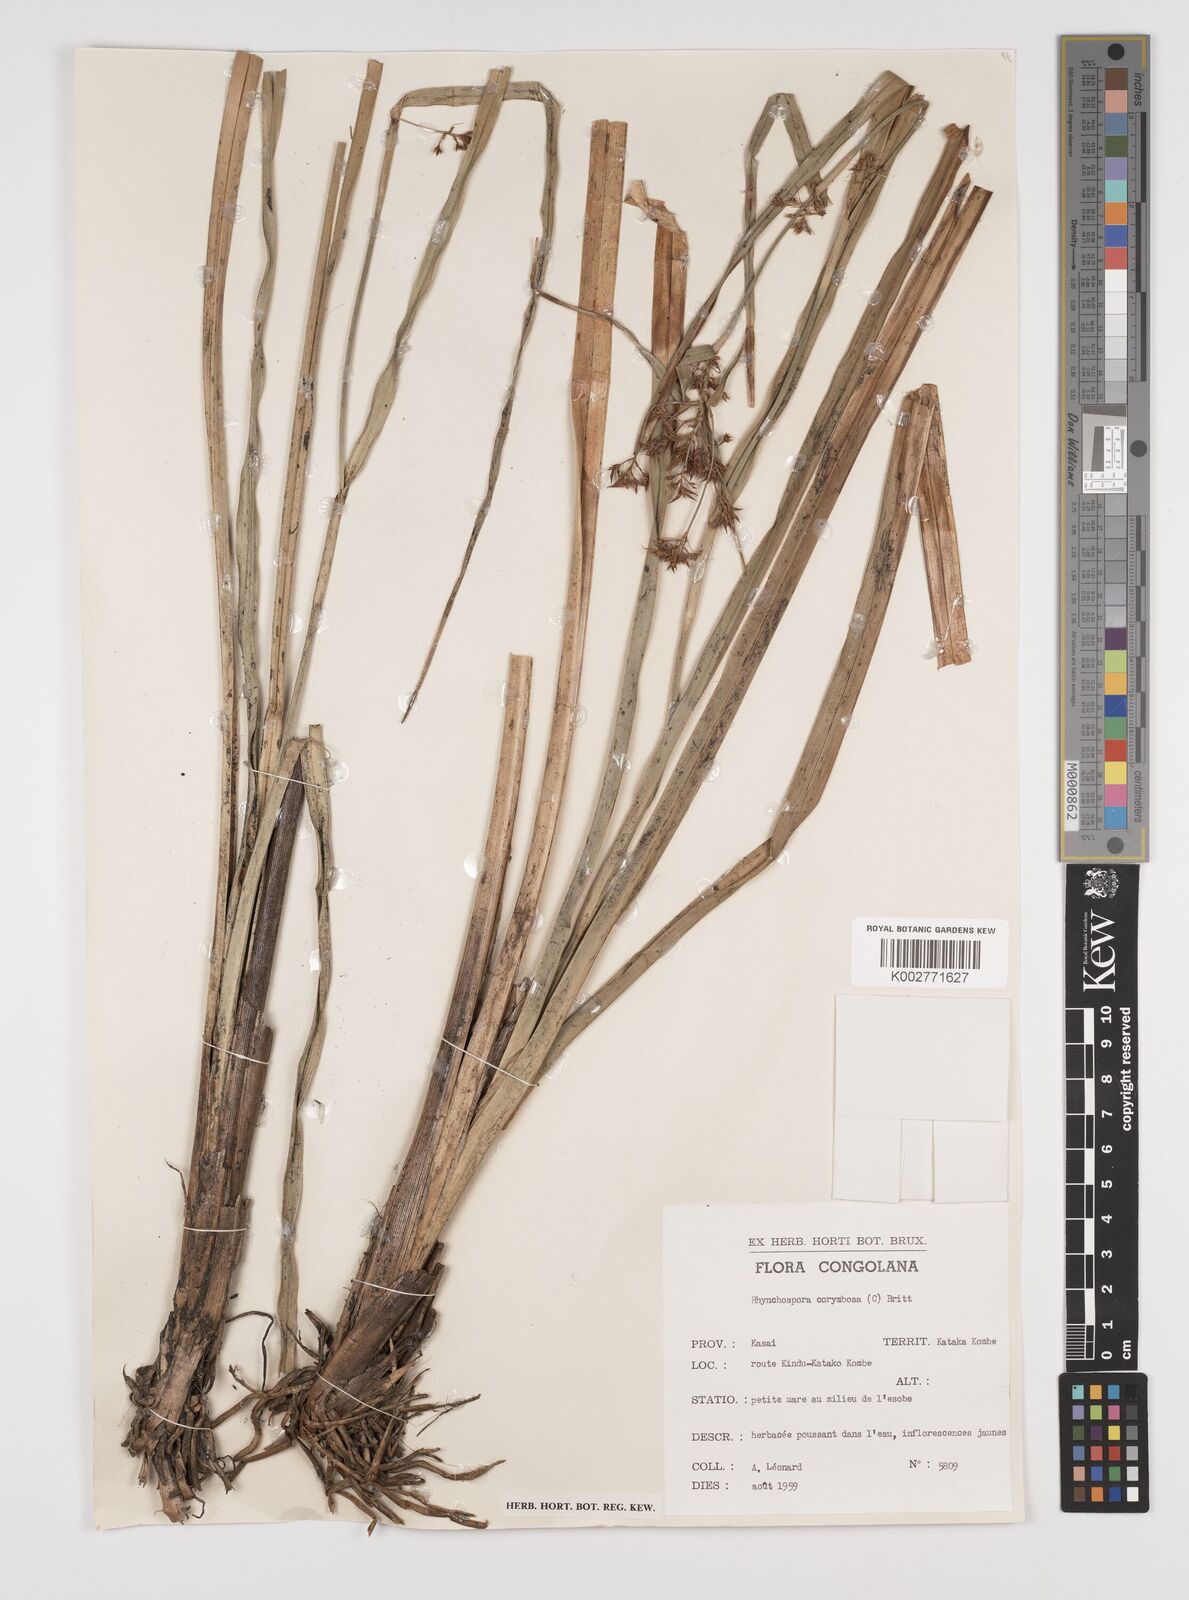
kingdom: Plantae
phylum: Tracheophyta
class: Liliopsida
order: Poales
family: Cyperaceae
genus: Rhynchospora
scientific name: Rhynchospora corymbosa
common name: Golden beak sedge
